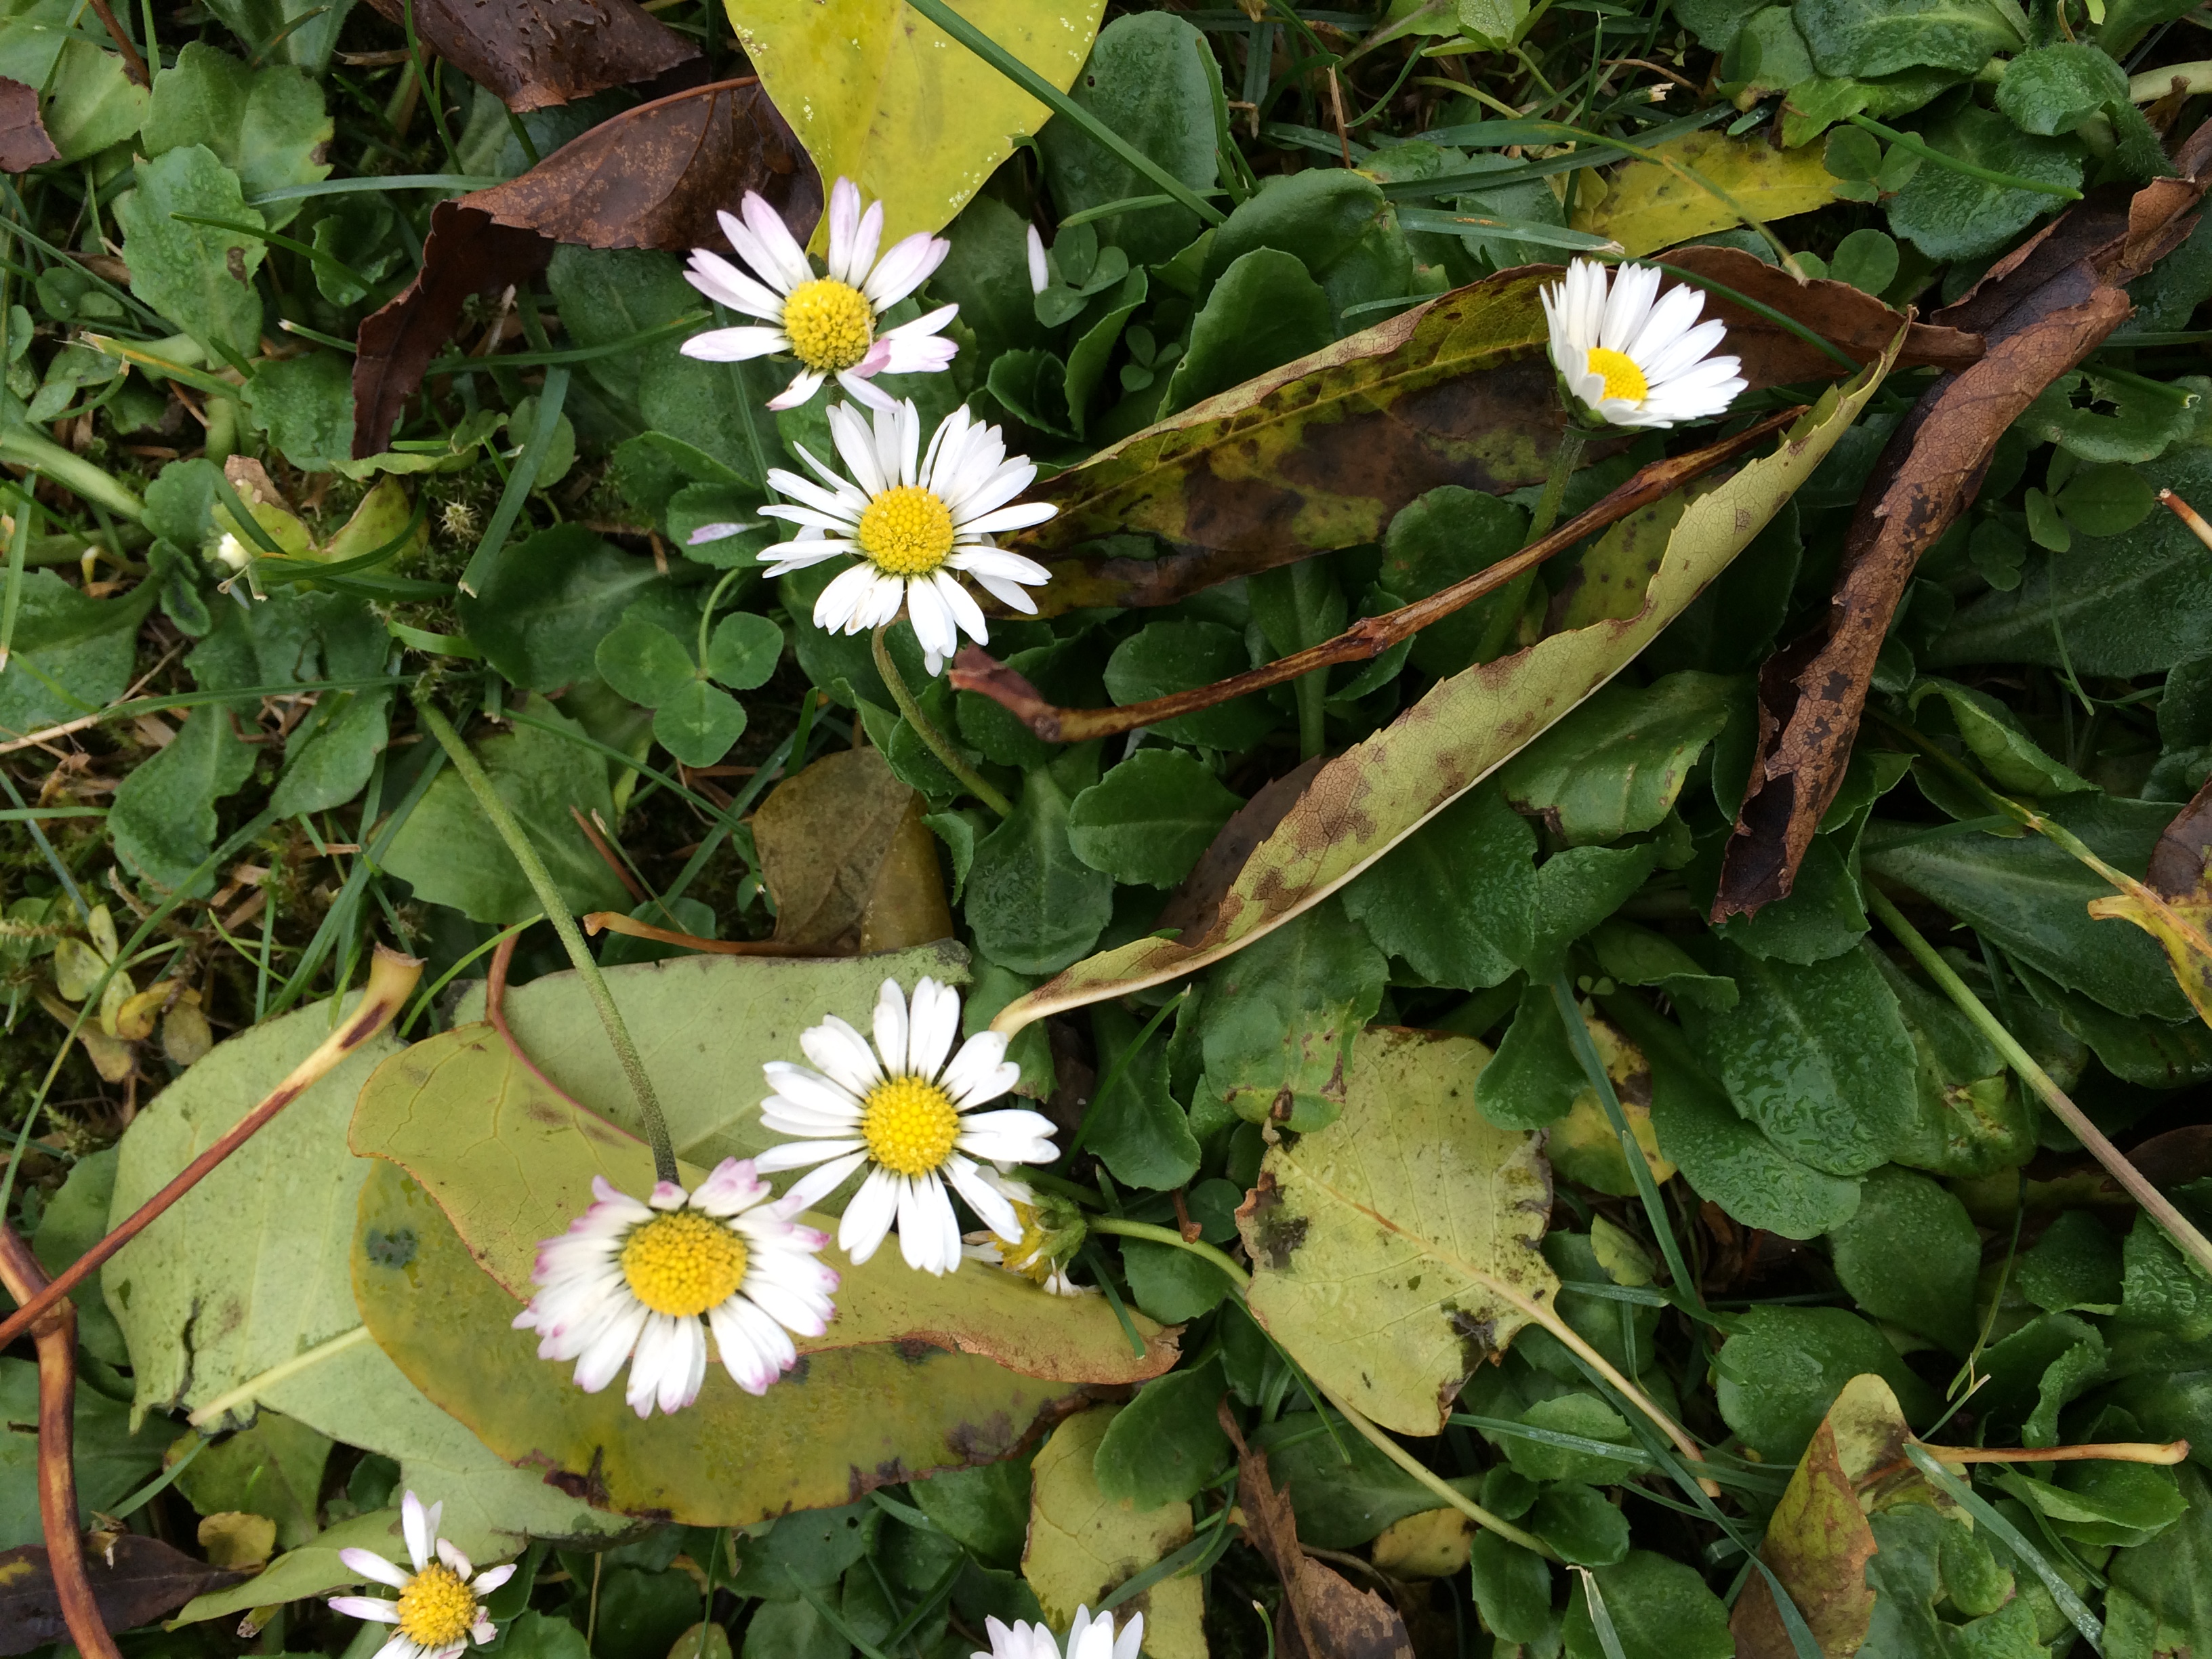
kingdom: Plantae
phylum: Tracheophyta
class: Magnoliopsida
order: Asterales
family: Asteraceae
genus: Bellis
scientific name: Bellis perennis
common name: Lawndaisy
